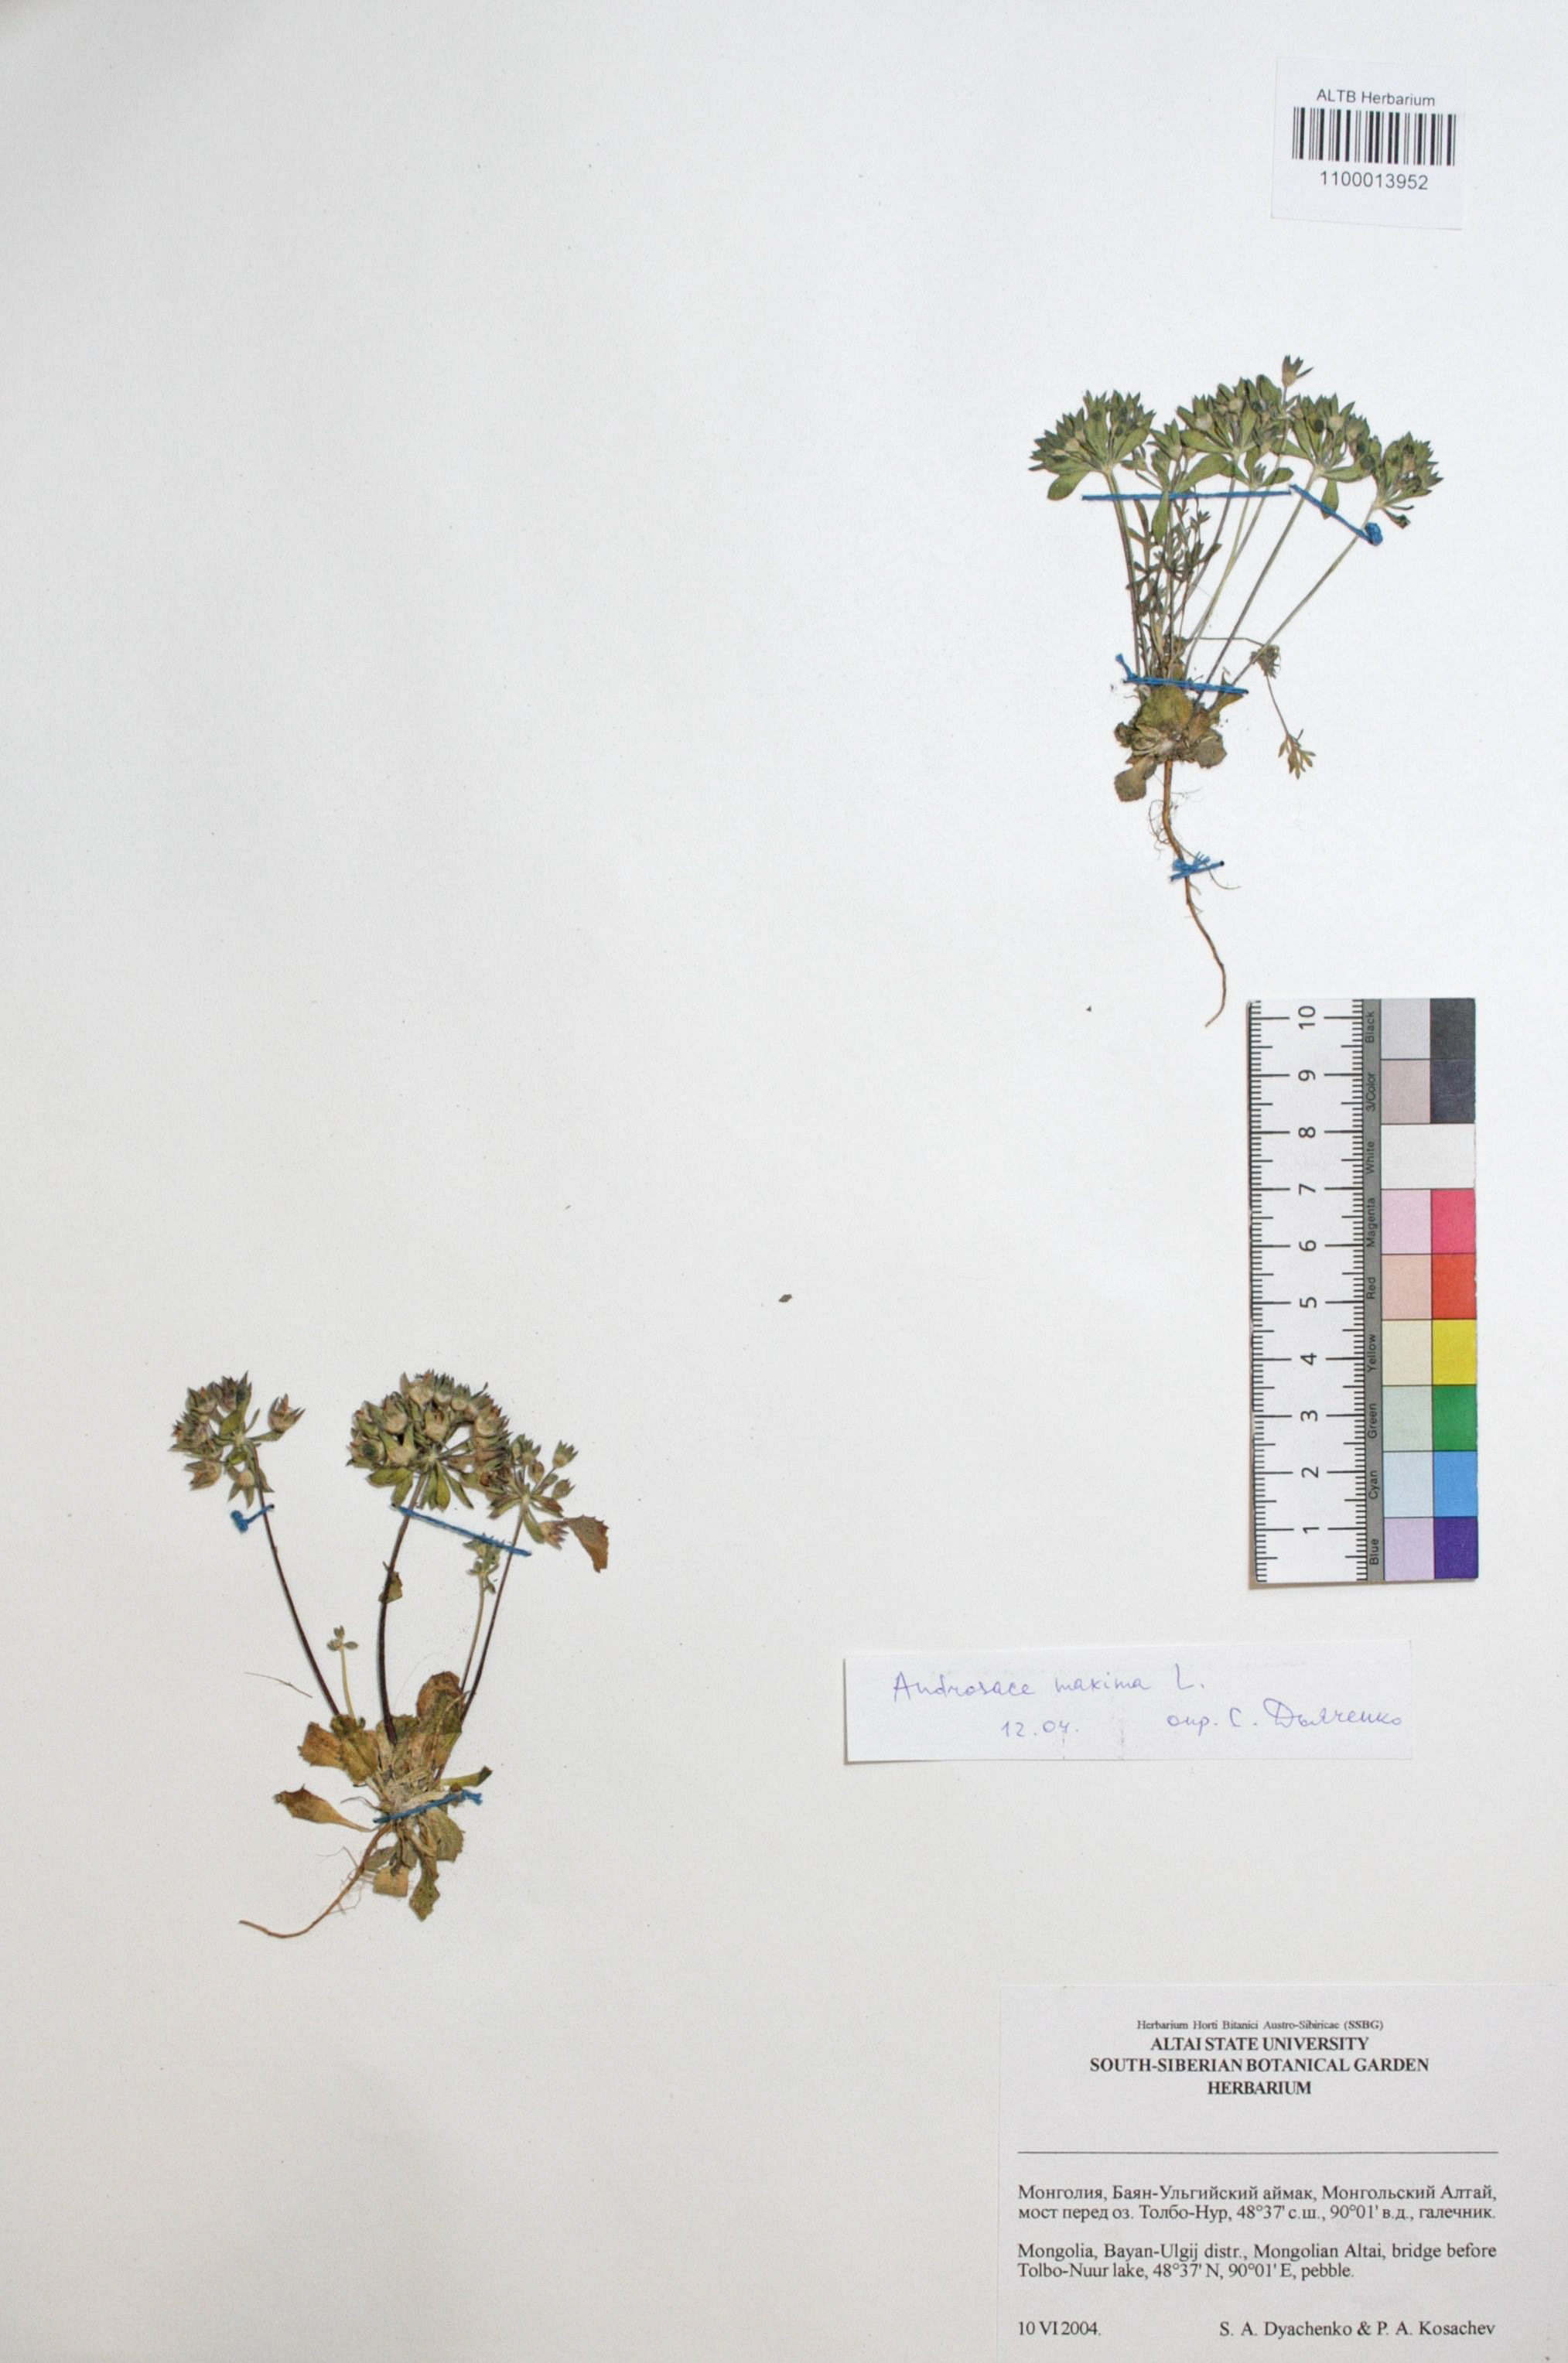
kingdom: Plantae
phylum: Tracheophyta
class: Magnoliopsida
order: Ericales
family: Primulaceae
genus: Androsace
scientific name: Androsace maxima
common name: Annual androsace
